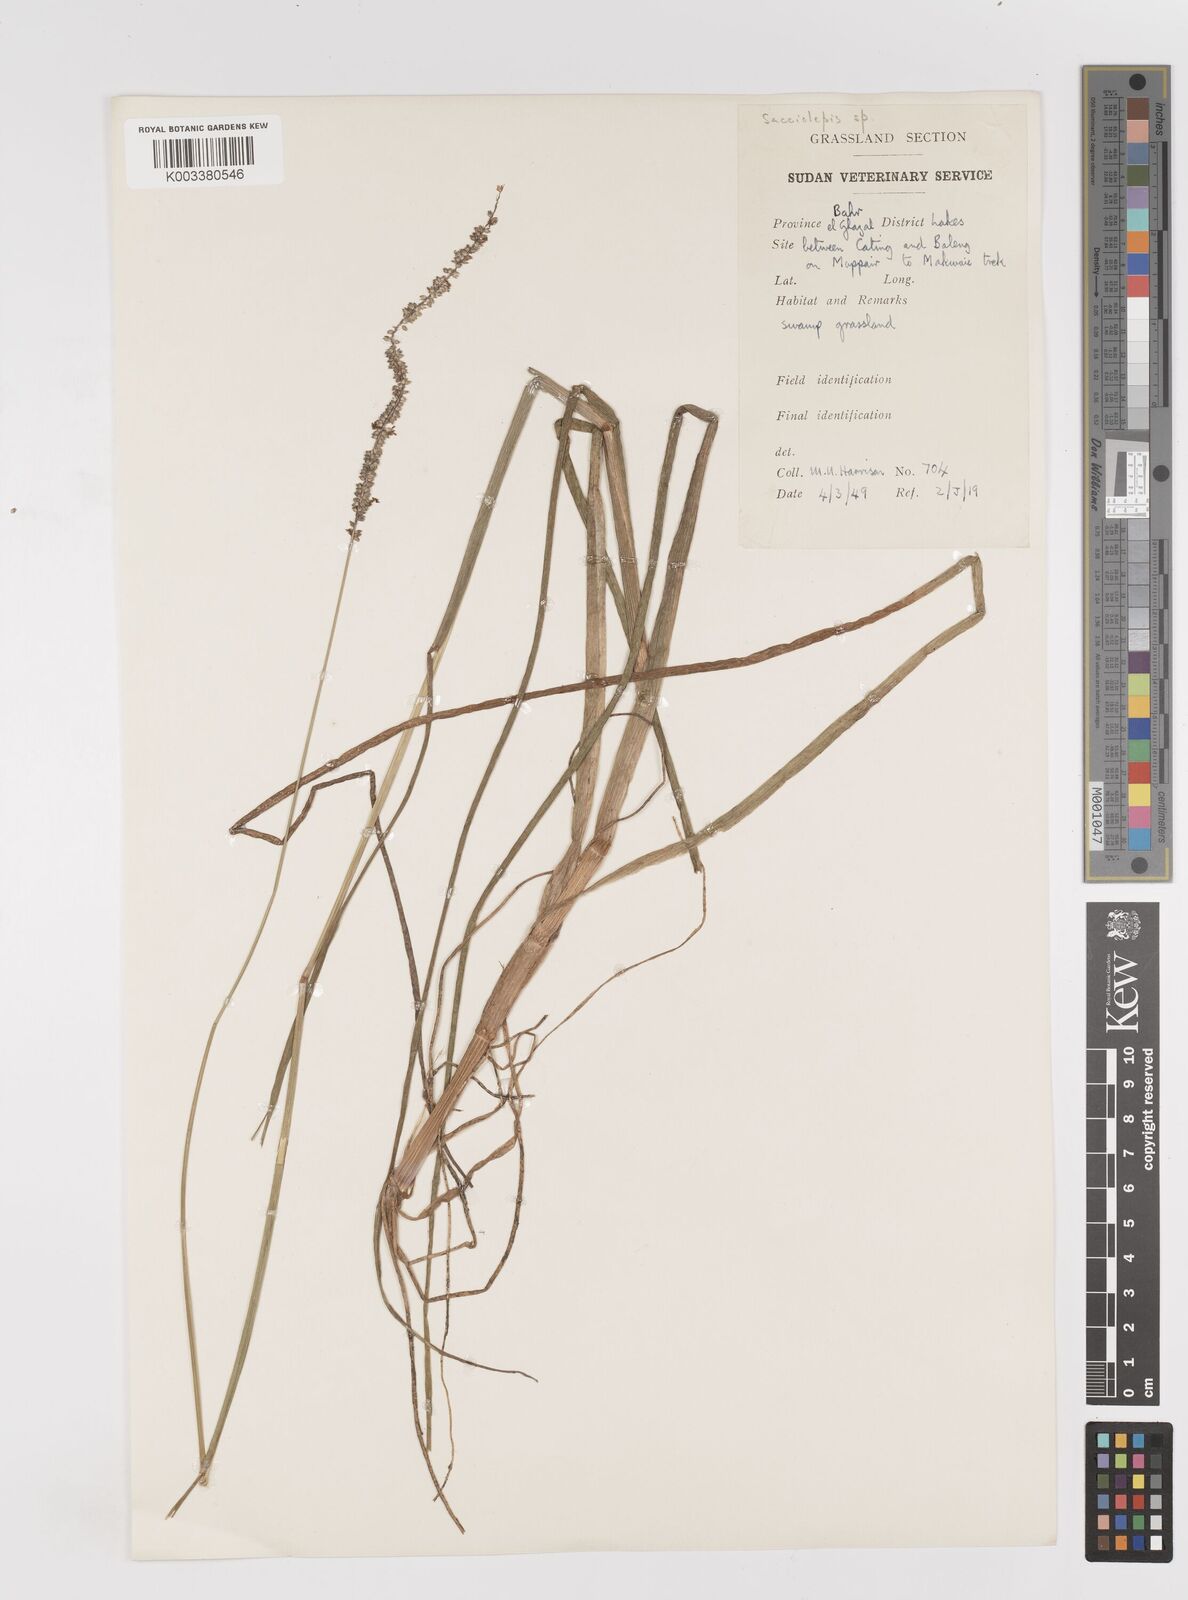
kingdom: Plantae
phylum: Tracheophyta
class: Liliopsida
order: Poales
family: Poaceae
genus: Sacciolepis
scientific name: Sacciolepis typhura
